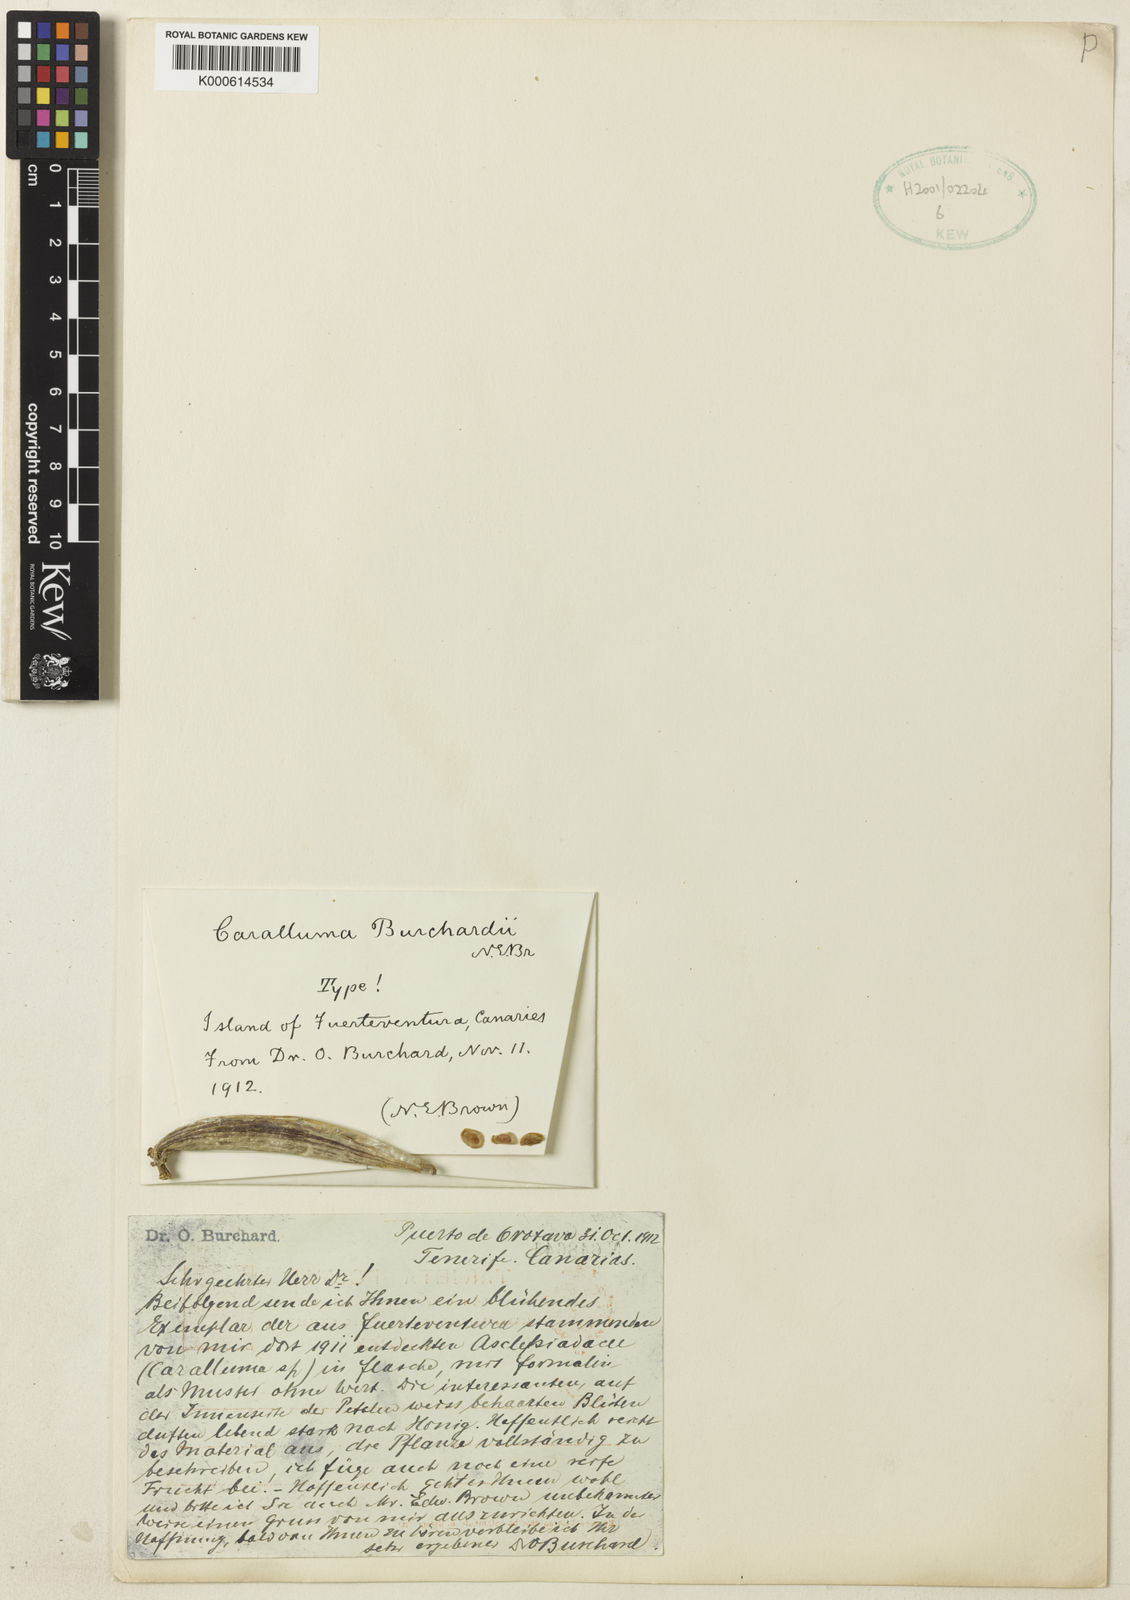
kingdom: Plantae
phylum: Tracheophyta
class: Magnoliopsida
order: Gentianales
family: Apocynaceae
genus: Ceropegia
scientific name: Ceropegia burchardii
